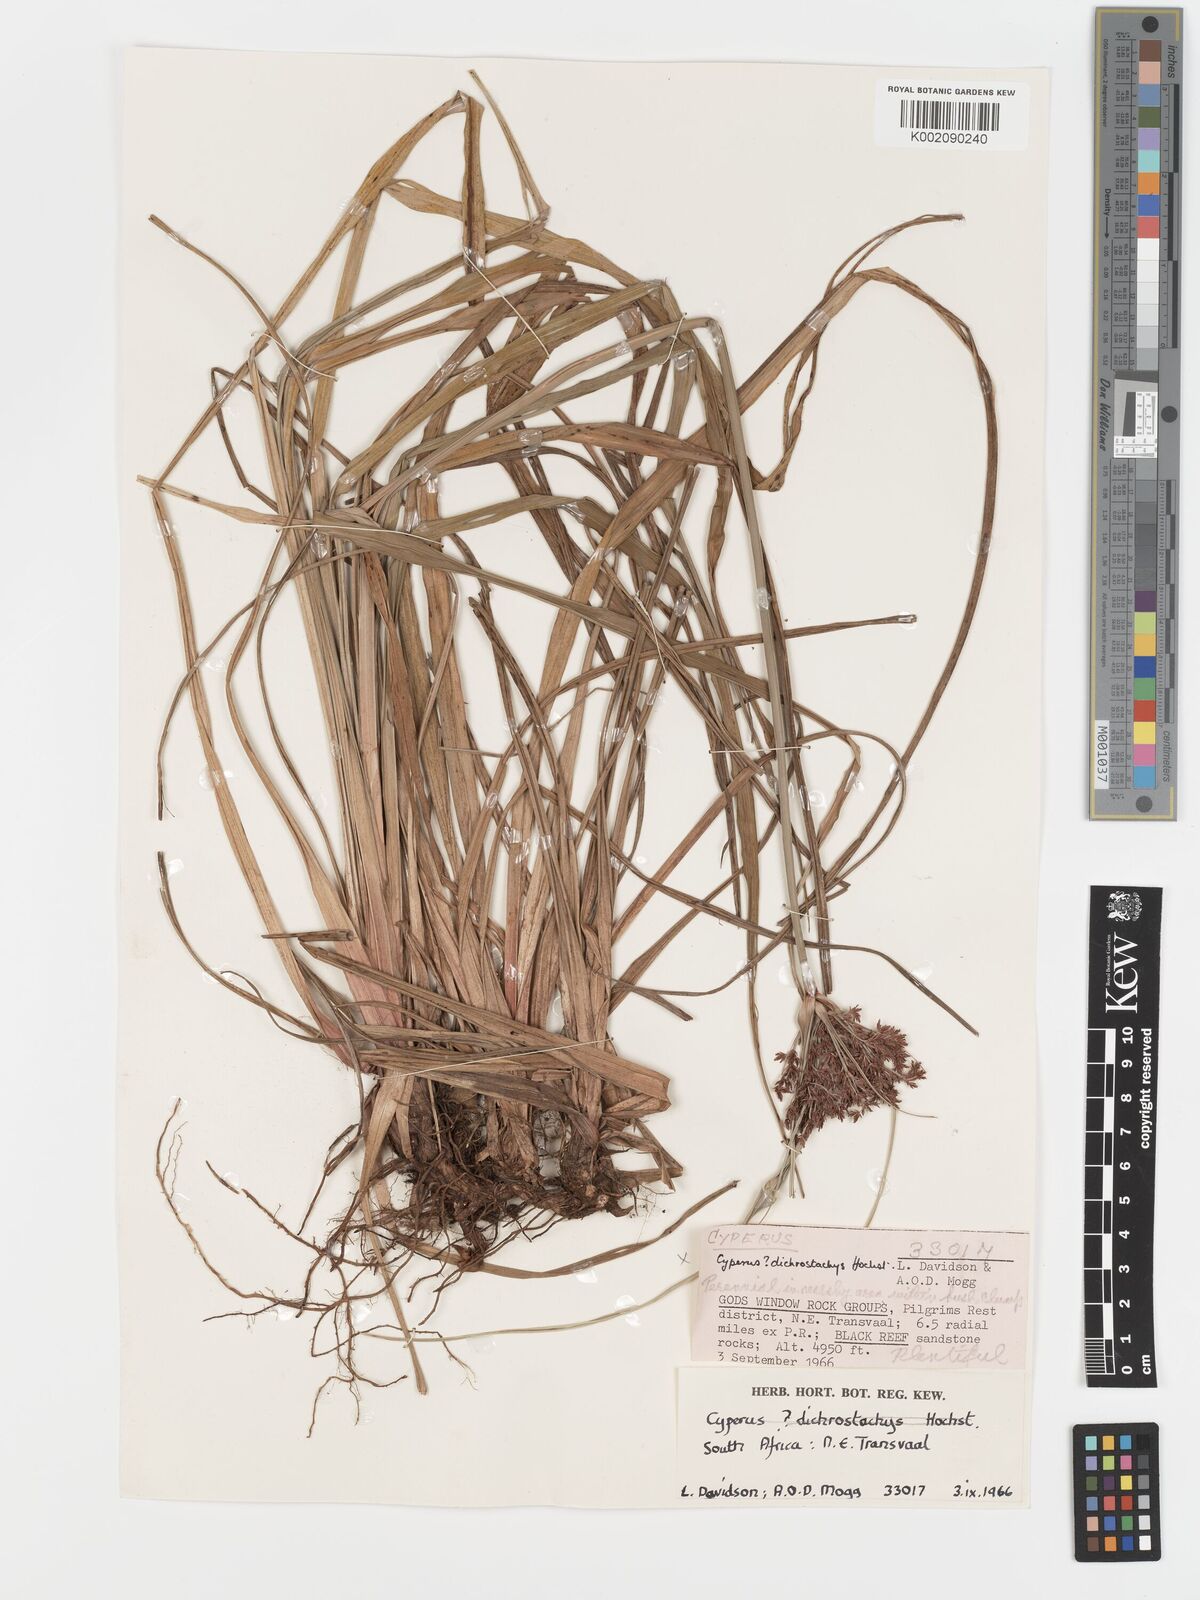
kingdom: Plantae
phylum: Tracheophyta
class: Liliopsida
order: Poales
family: Cyperaceae
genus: Cyperus
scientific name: Cyperus leptocladus
